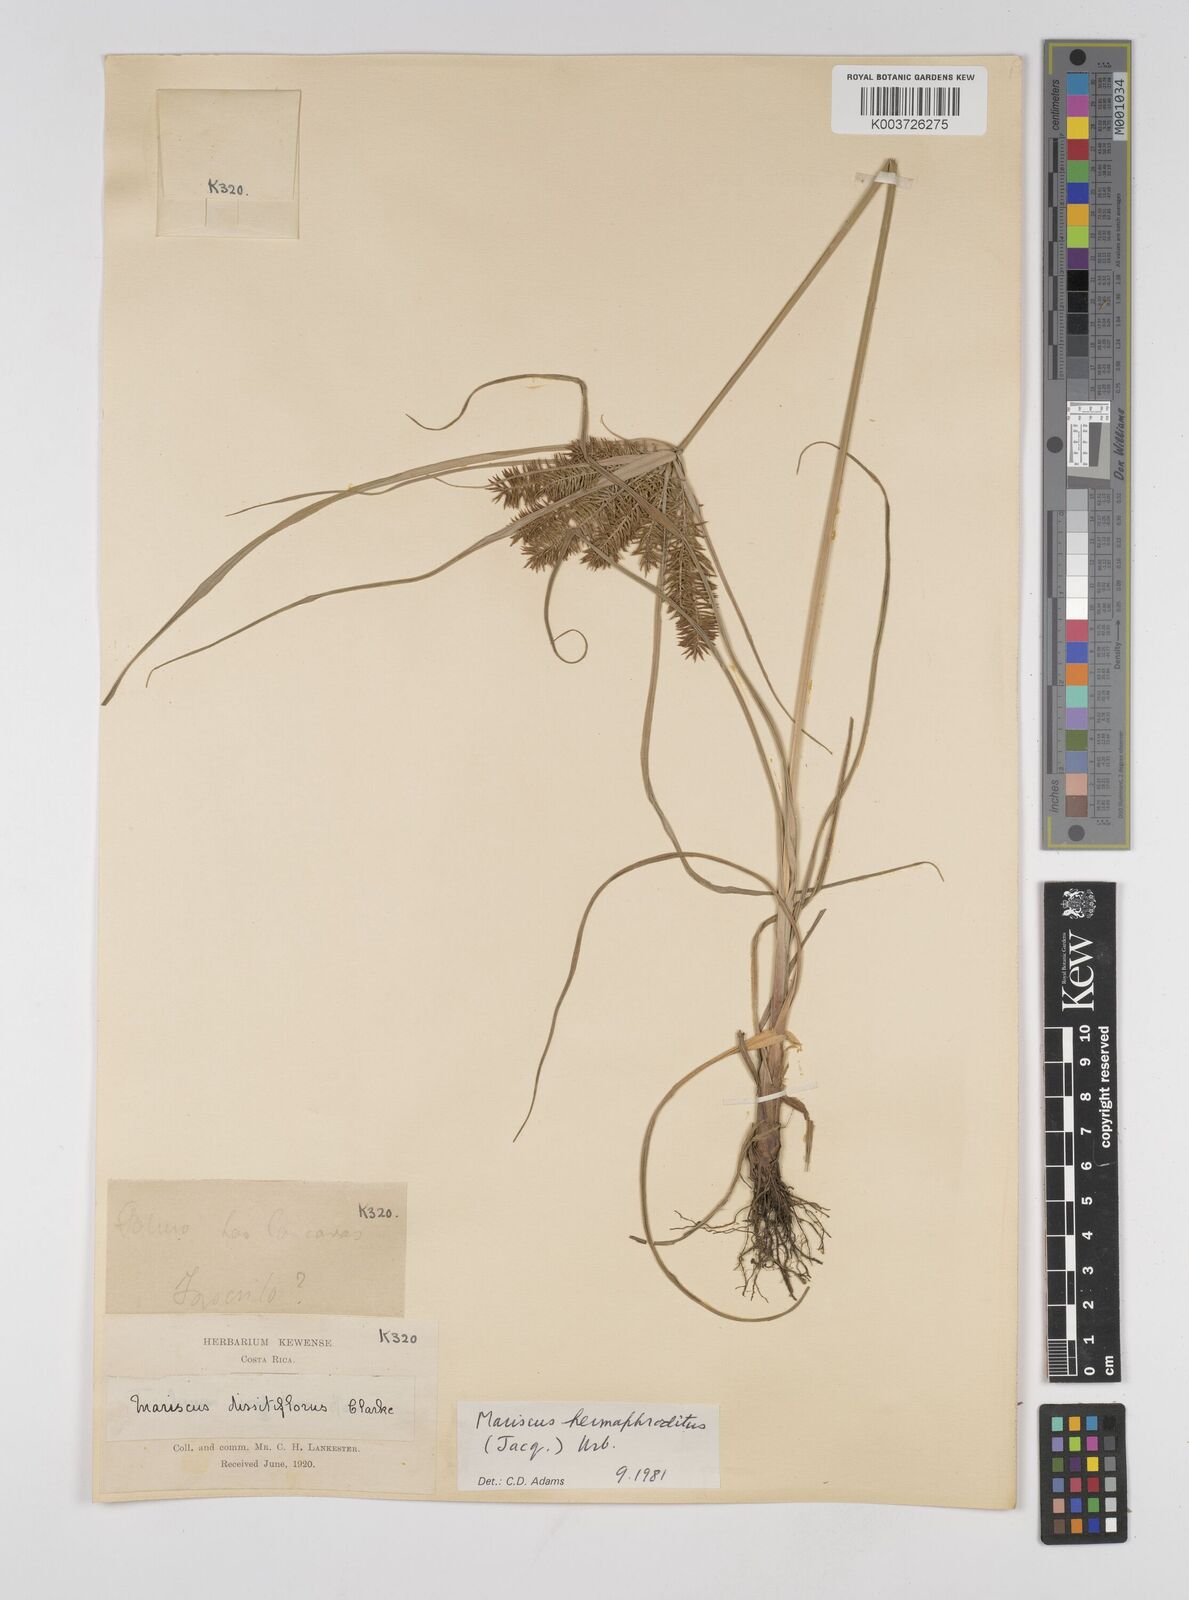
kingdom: Plantae
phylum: Tracheophyta
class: Liliopsida
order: Poales
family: Cyperaceae
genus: Cyperus
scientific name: Cyperus hermaphroditus
